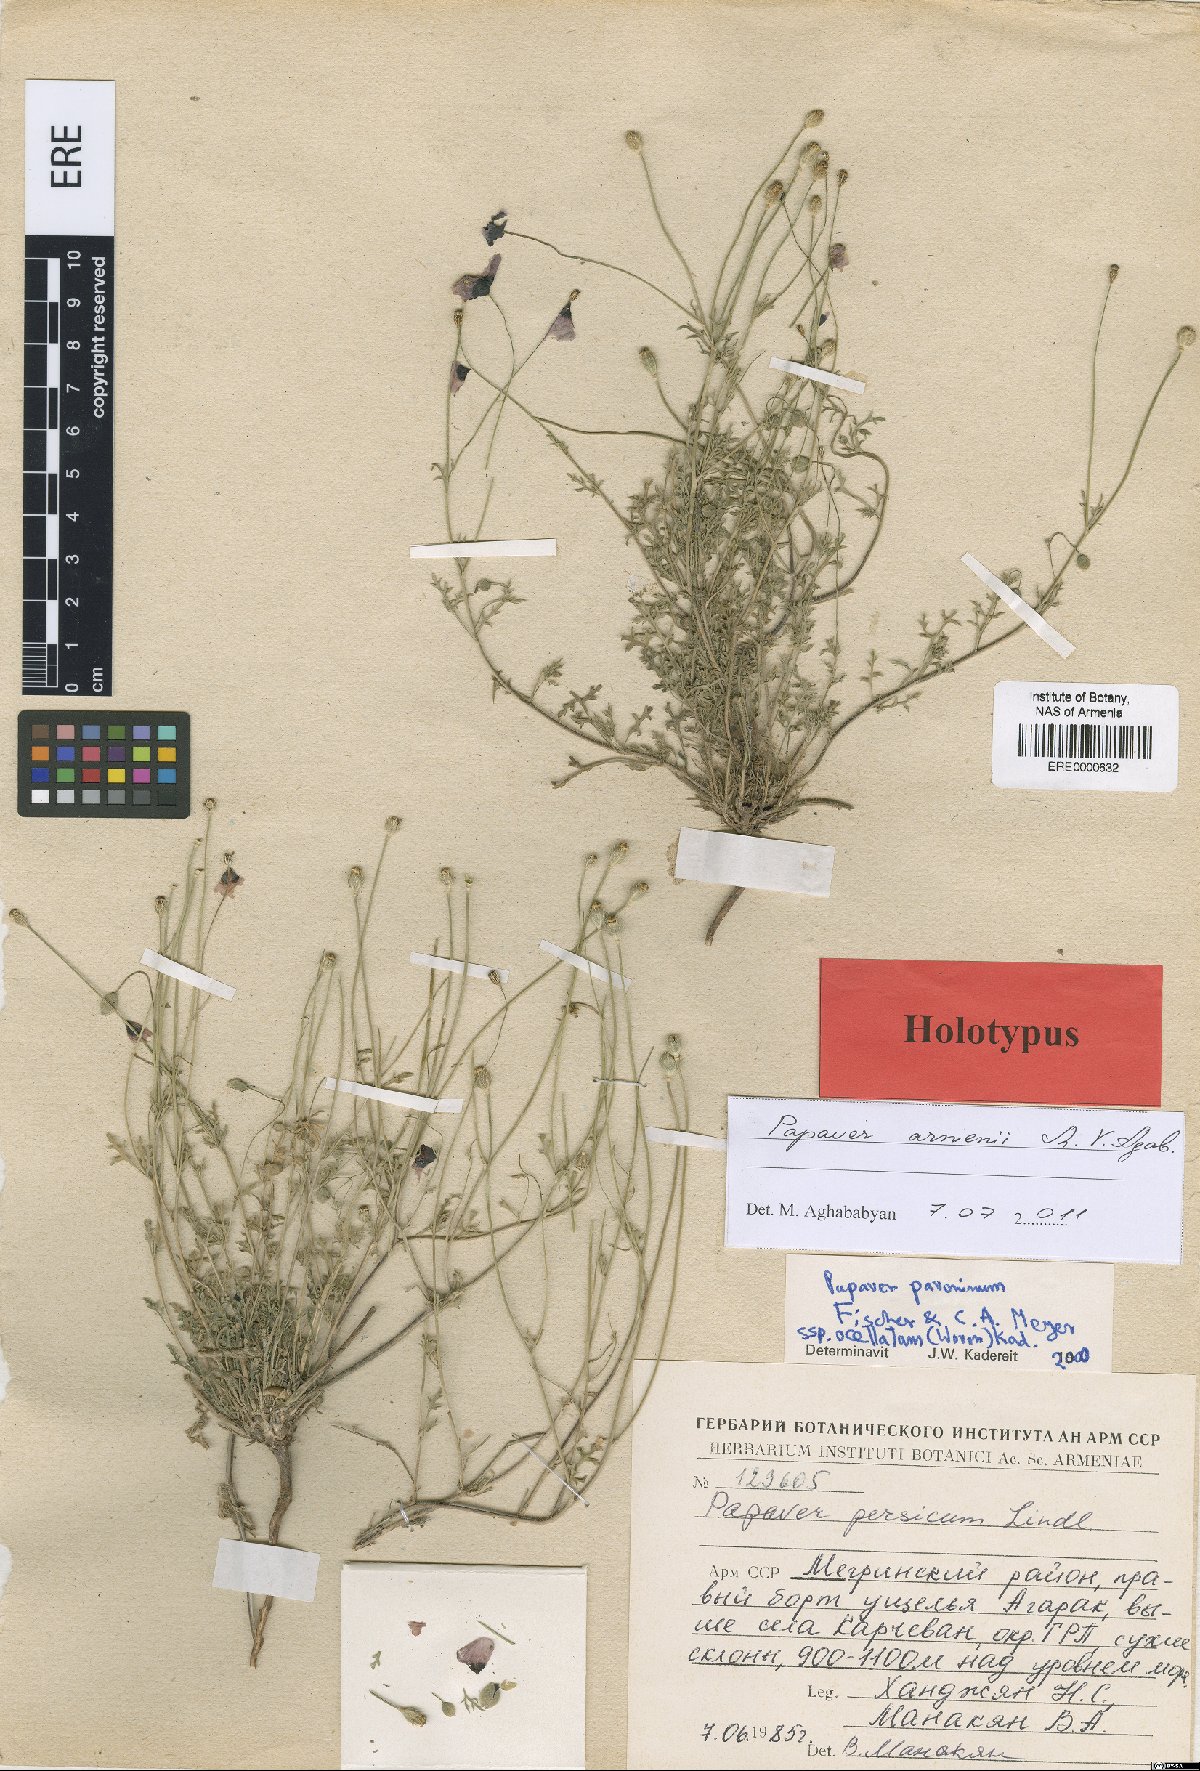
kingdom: Plantae
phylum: Tracheophyta
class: Magnoliopsida
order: Ranunculales
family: Papaveraceae
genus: Roemeria
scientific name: Roemeria armenii
